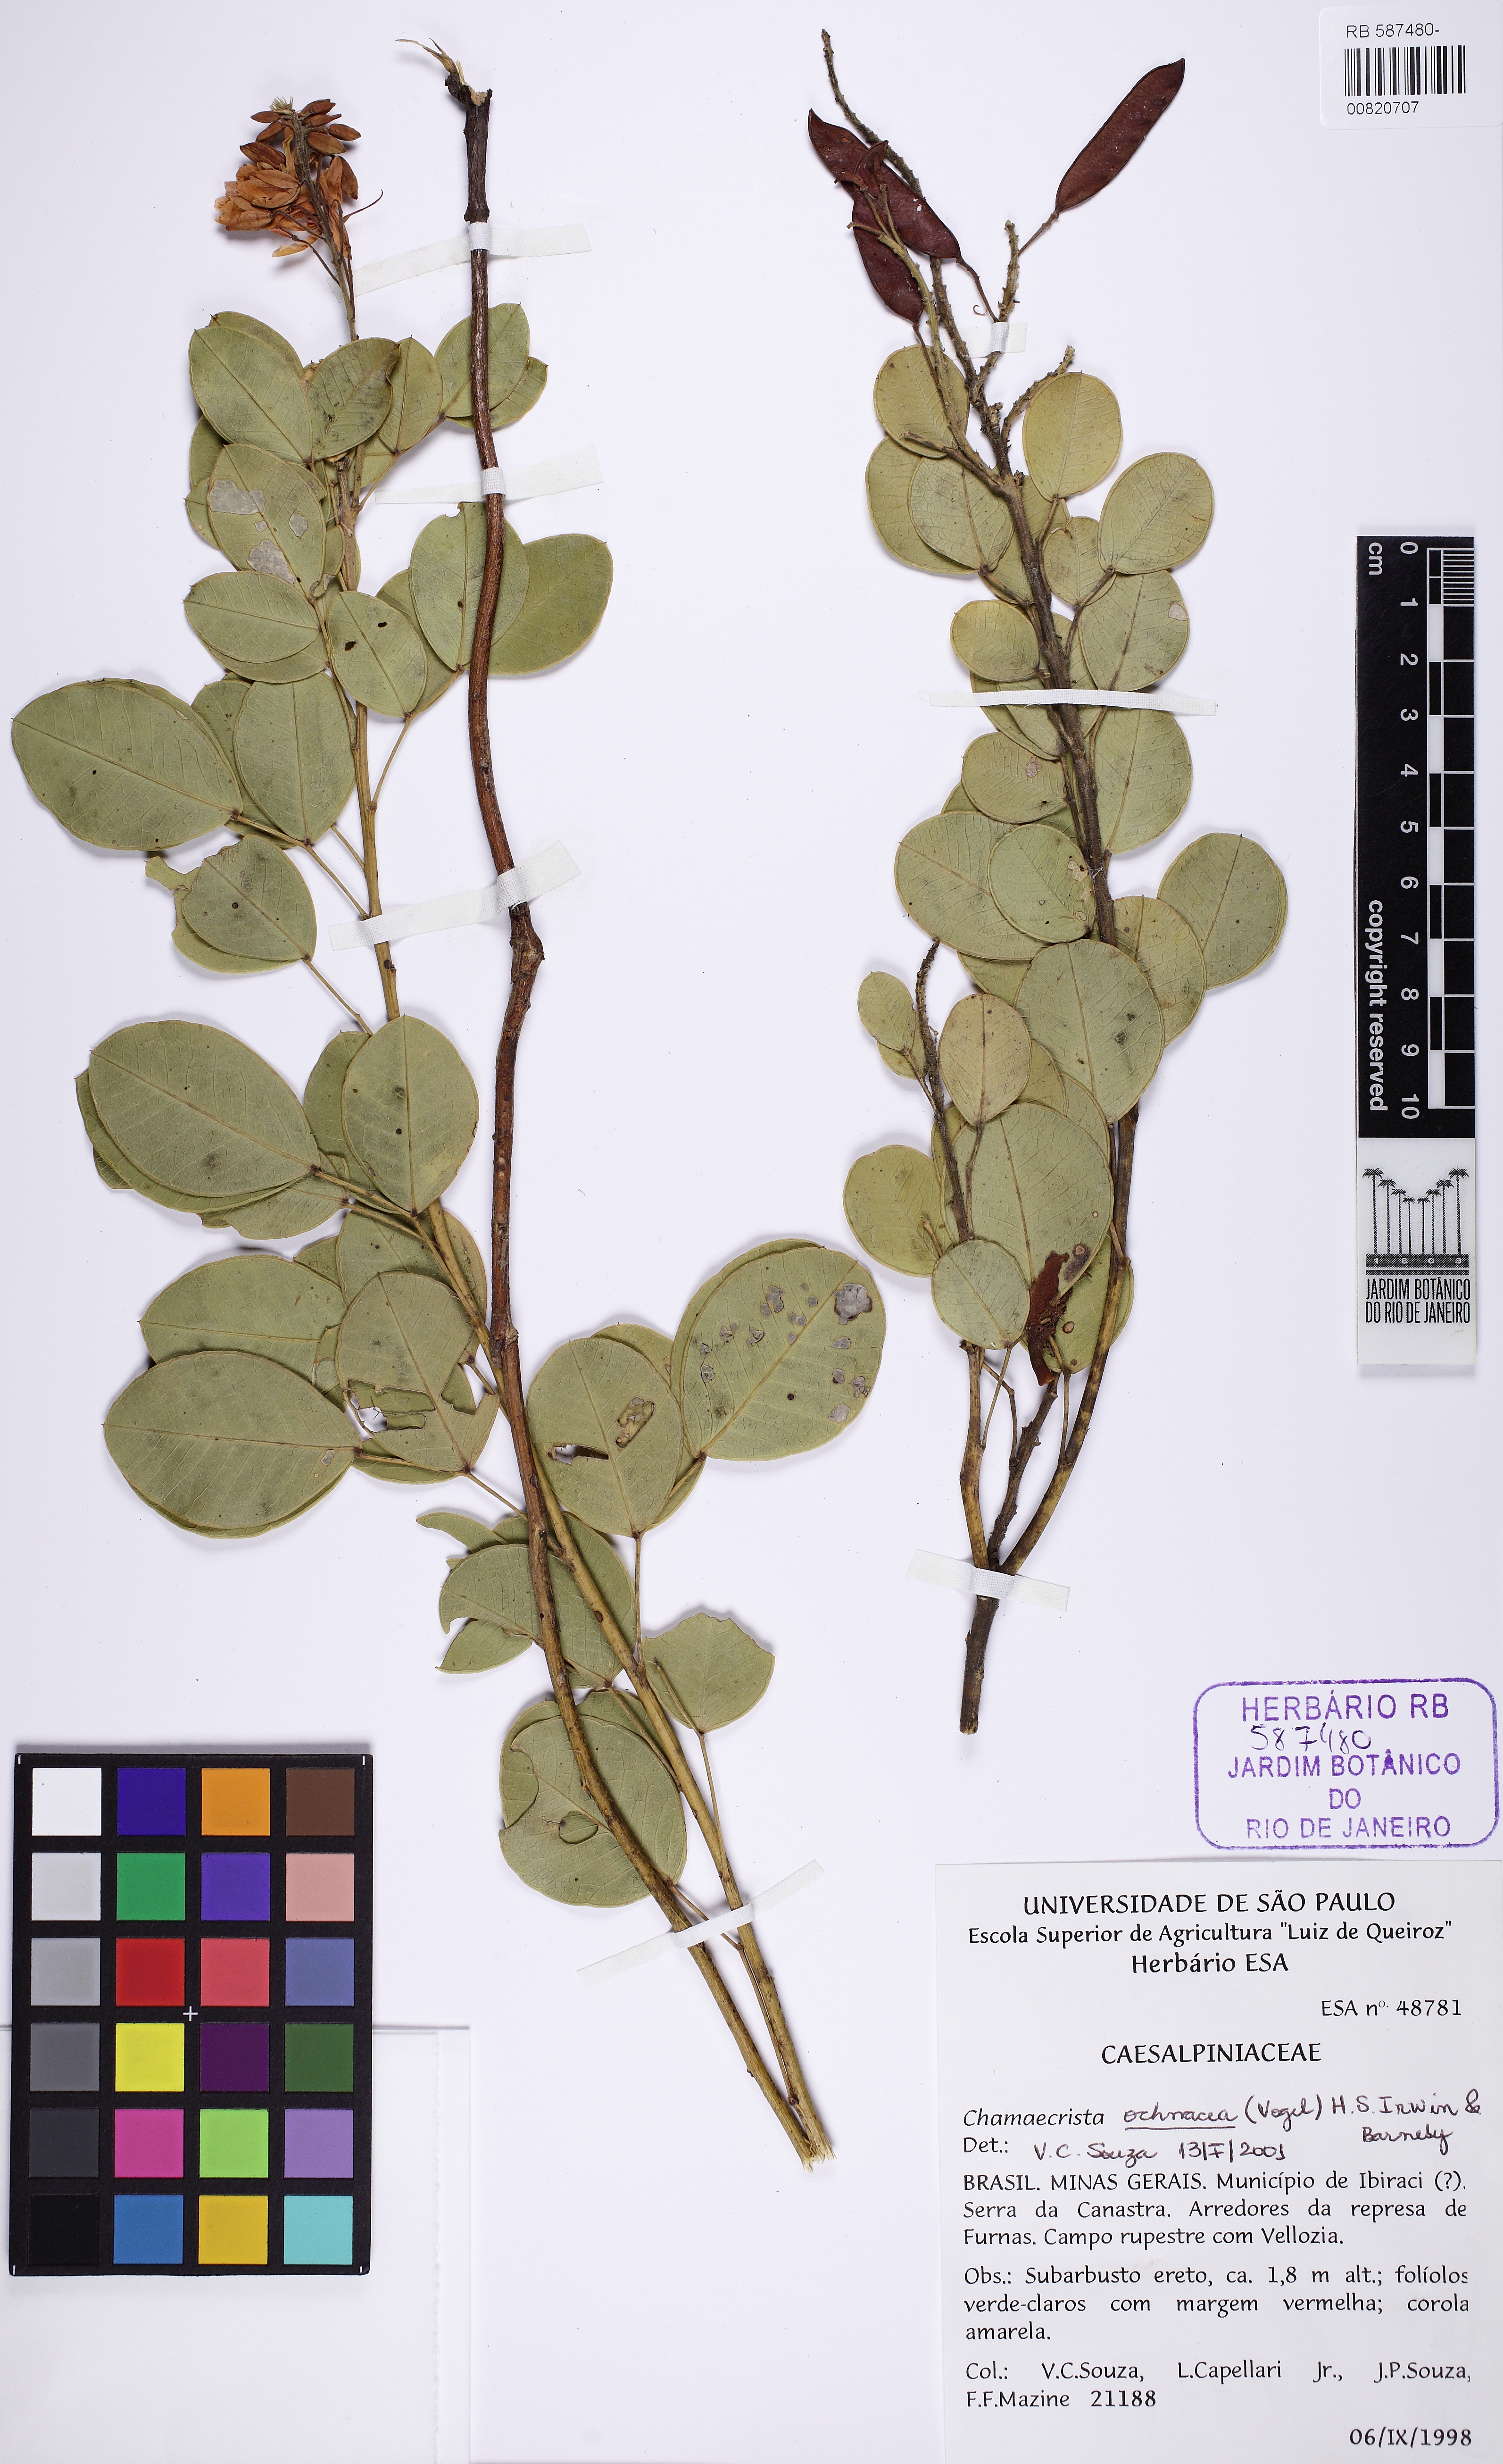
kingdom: Plantae
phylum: Tracheophyta
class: Magnoliopsida
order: Fabales
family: Fabaceae
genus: Chamaecrista
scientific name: Chamaecrista ochnacea
